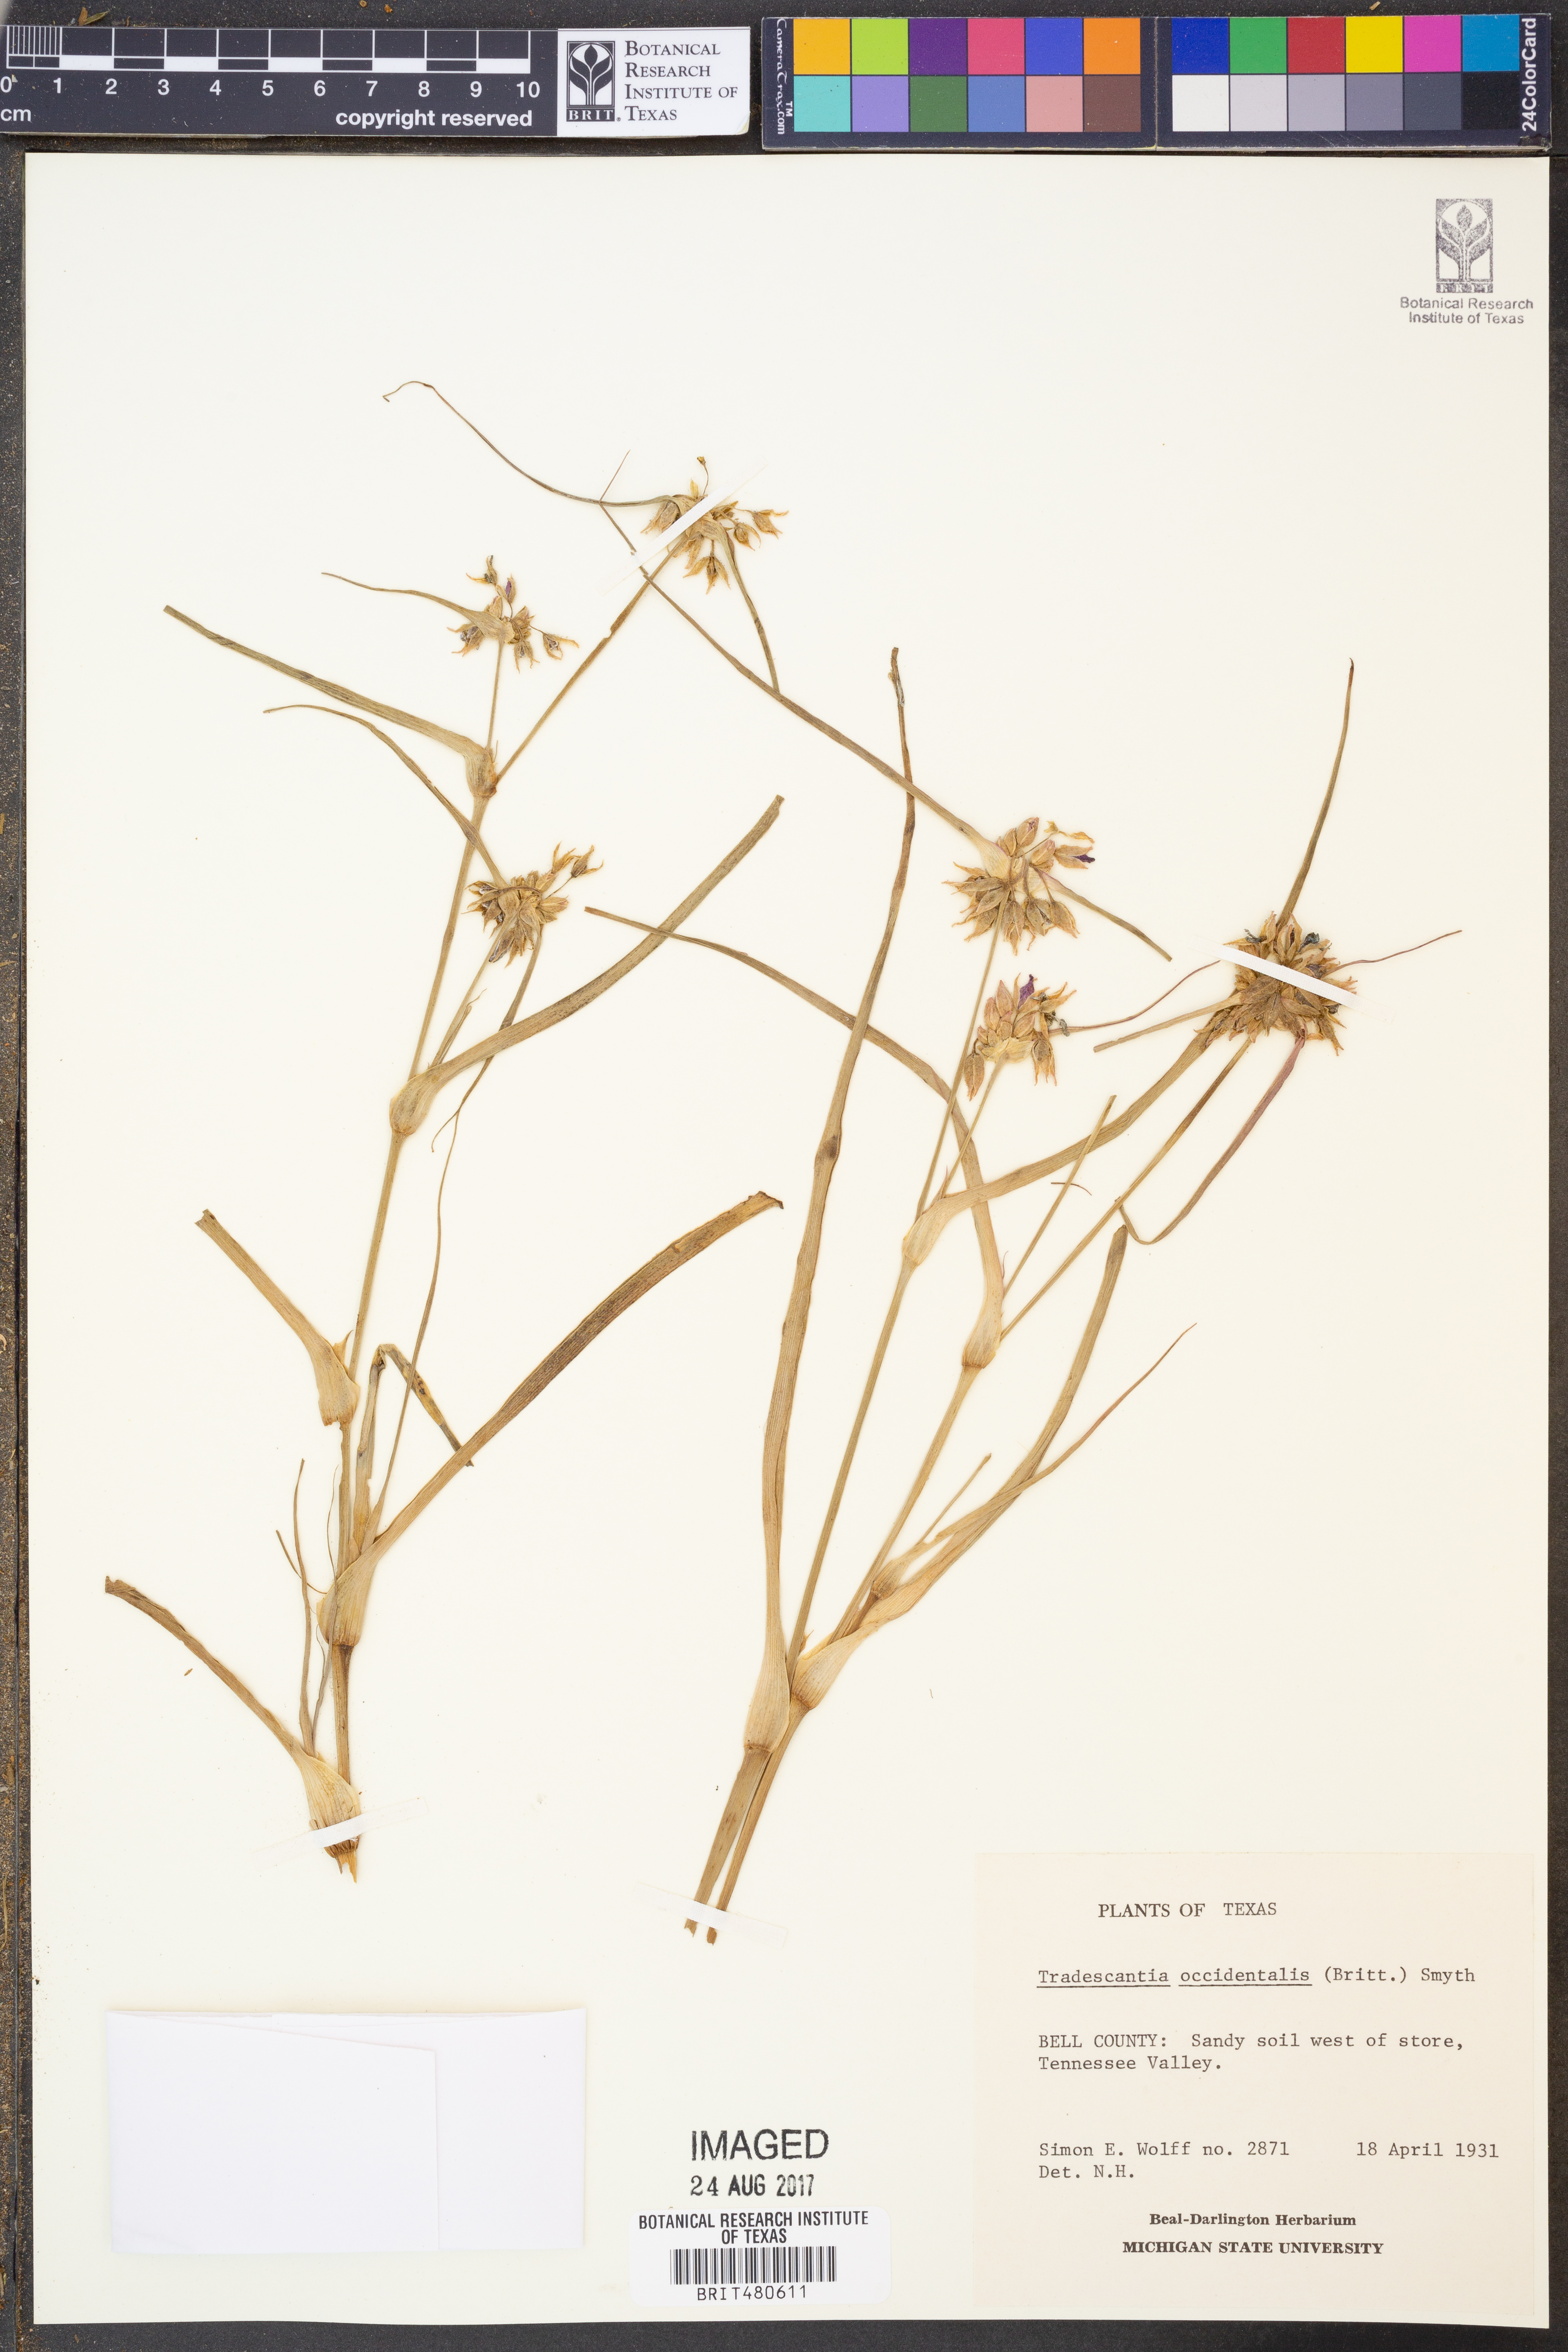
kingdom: Plantae
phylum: Tracheophyta
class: Liliopsida
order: Commelinales
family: Commelinaceae
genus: Tradescantia
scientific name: Tradescantia occidentalis
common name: Prairie spiderwort
